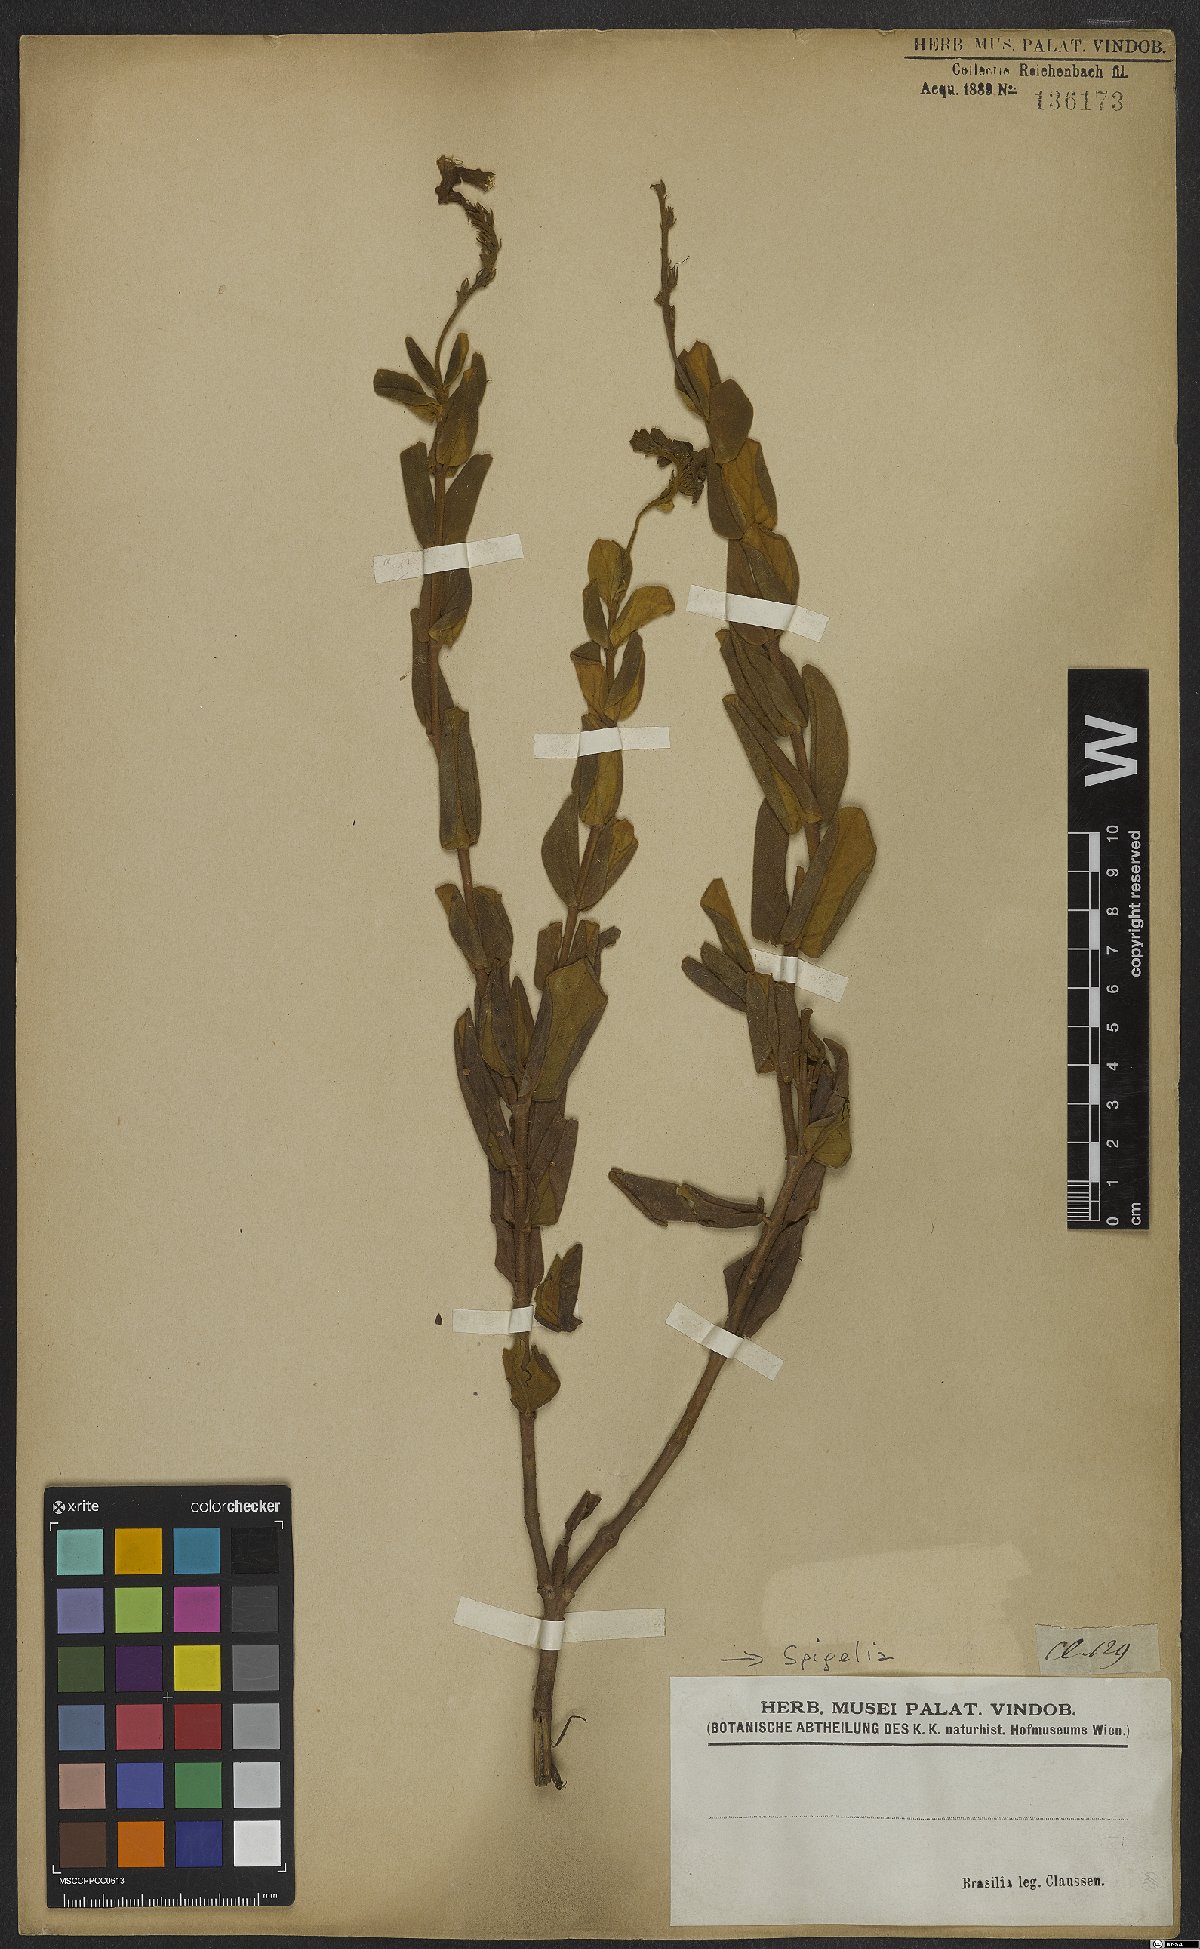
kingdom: Plantae
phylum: Tracheophyta
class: Magnoliopsida
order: Gentianales
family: Loganiaceae
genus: Spigelia
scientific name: Spigelia
